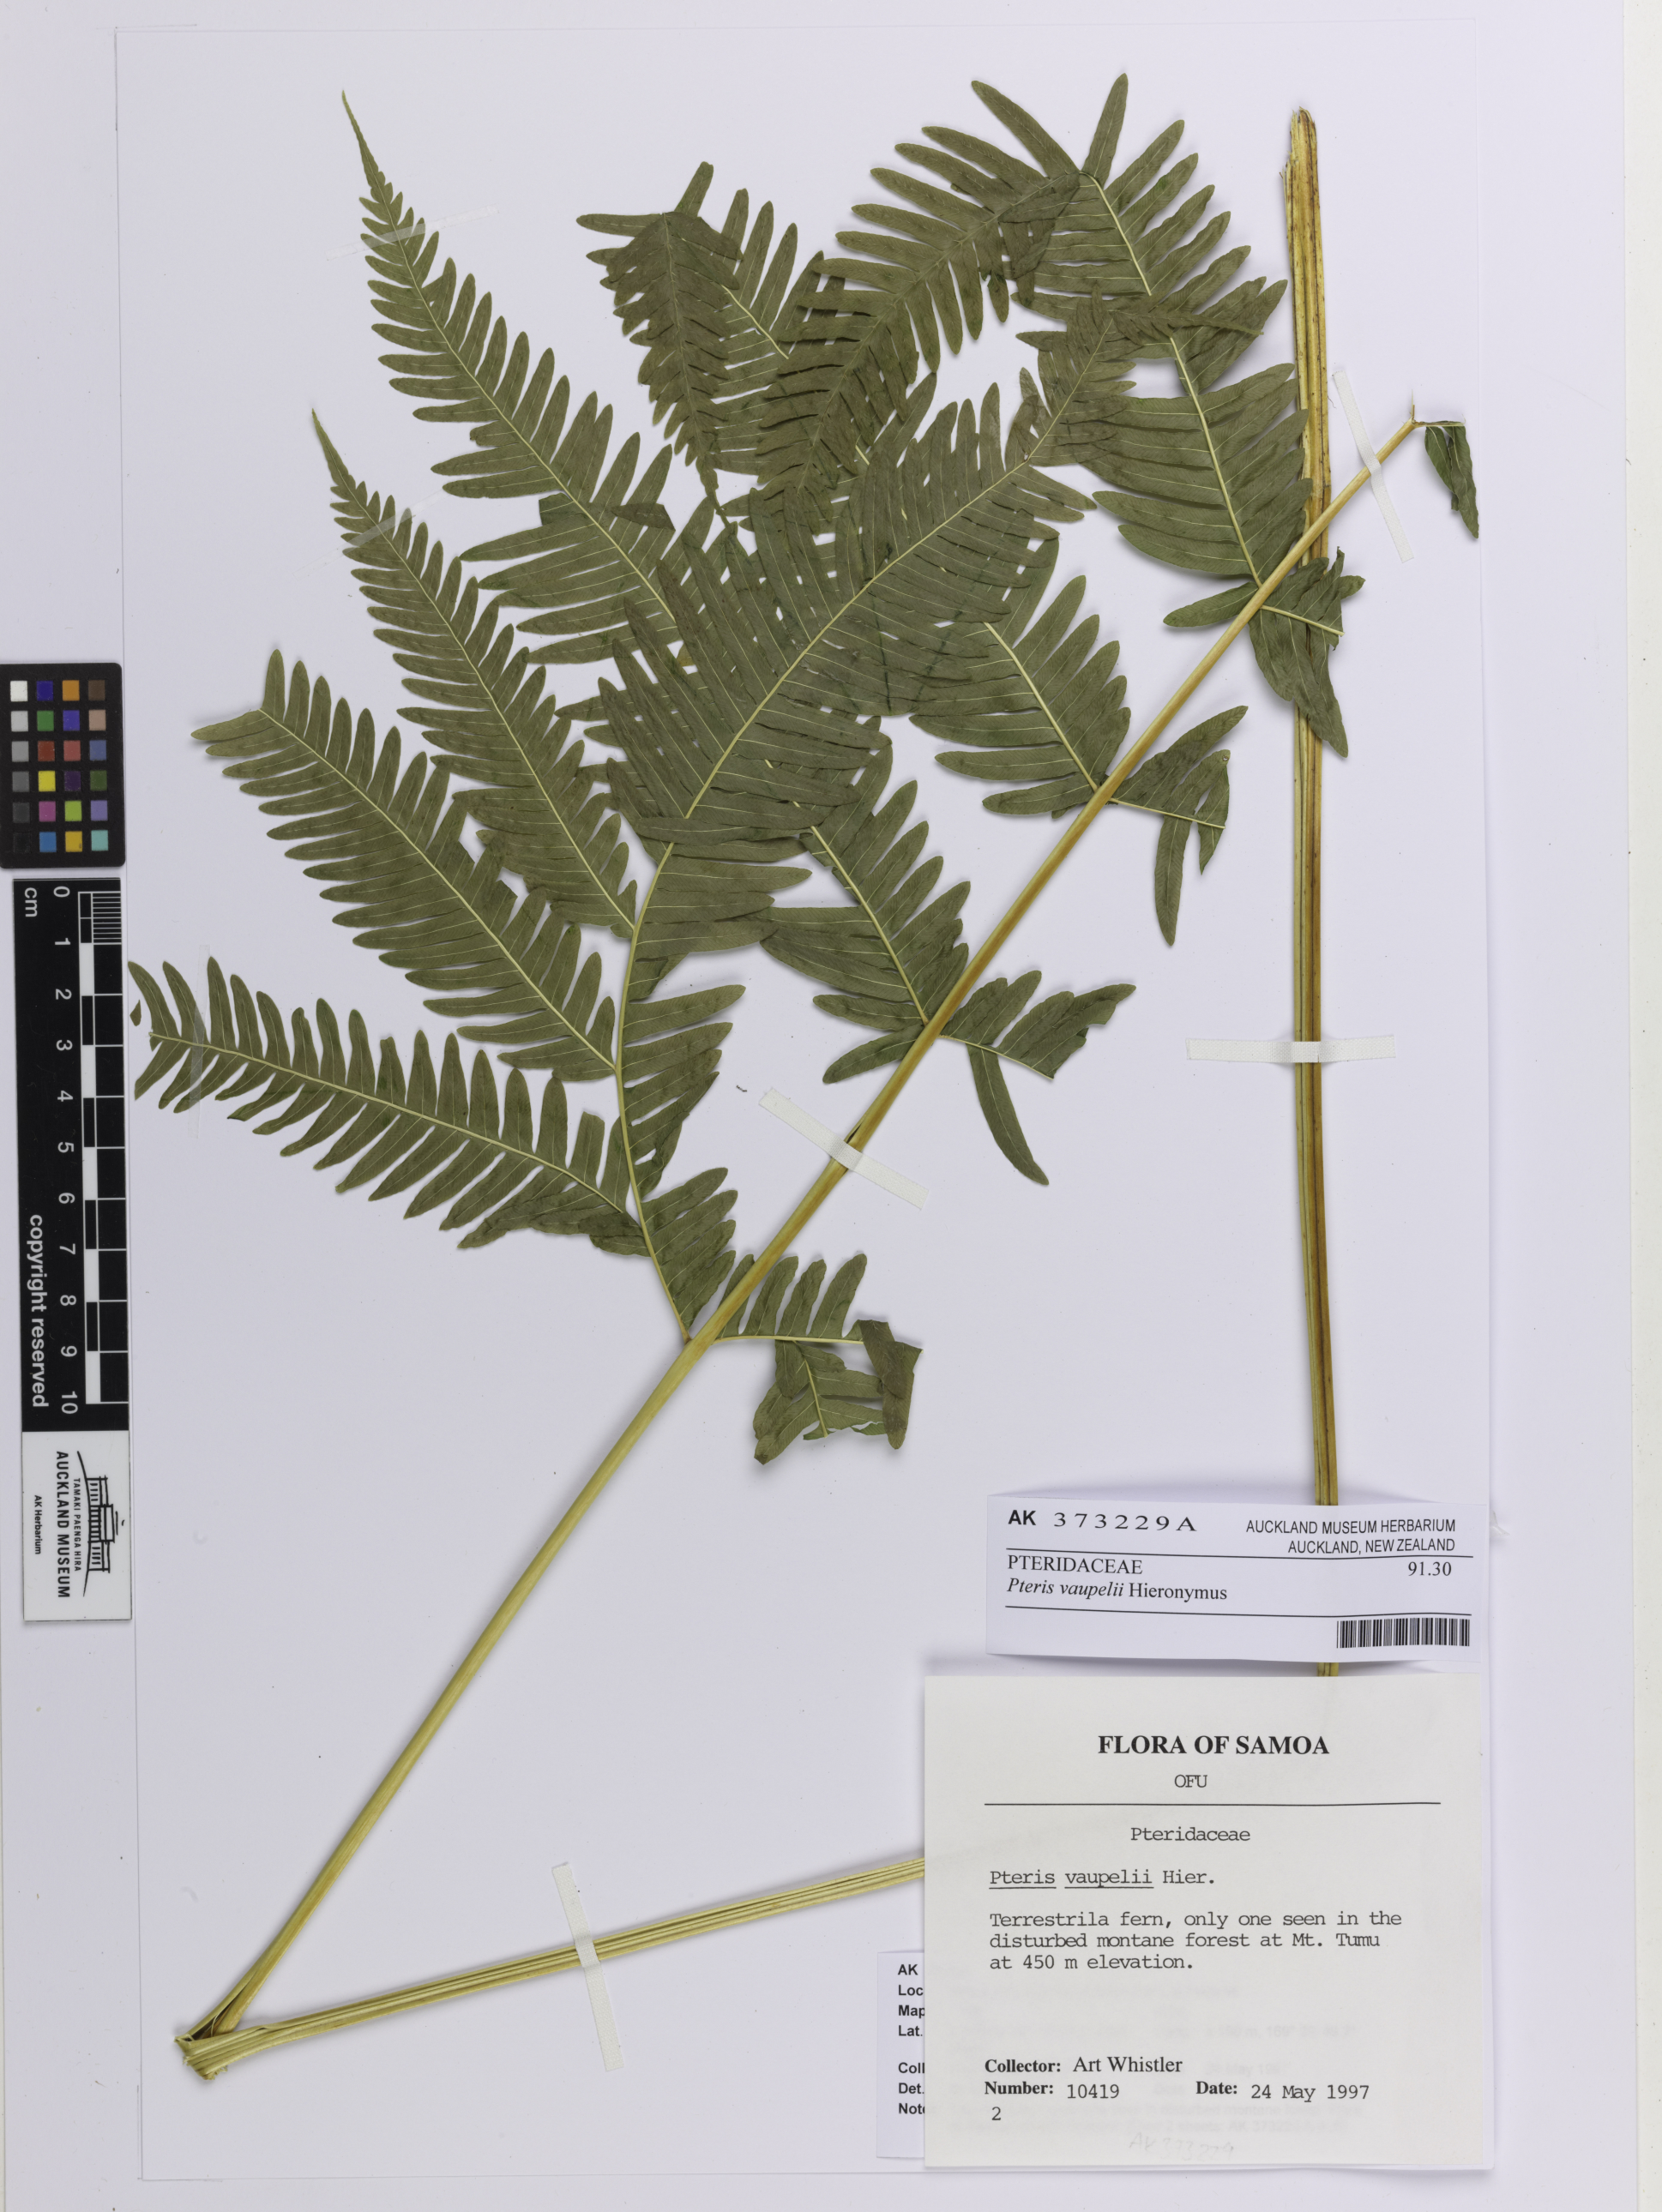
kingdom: Plantae
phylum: Tracheophyta
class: Polypodiopsida
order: Polypodiales
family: Pteridaceae
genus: Pteris
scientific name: Pteris vaupelii
